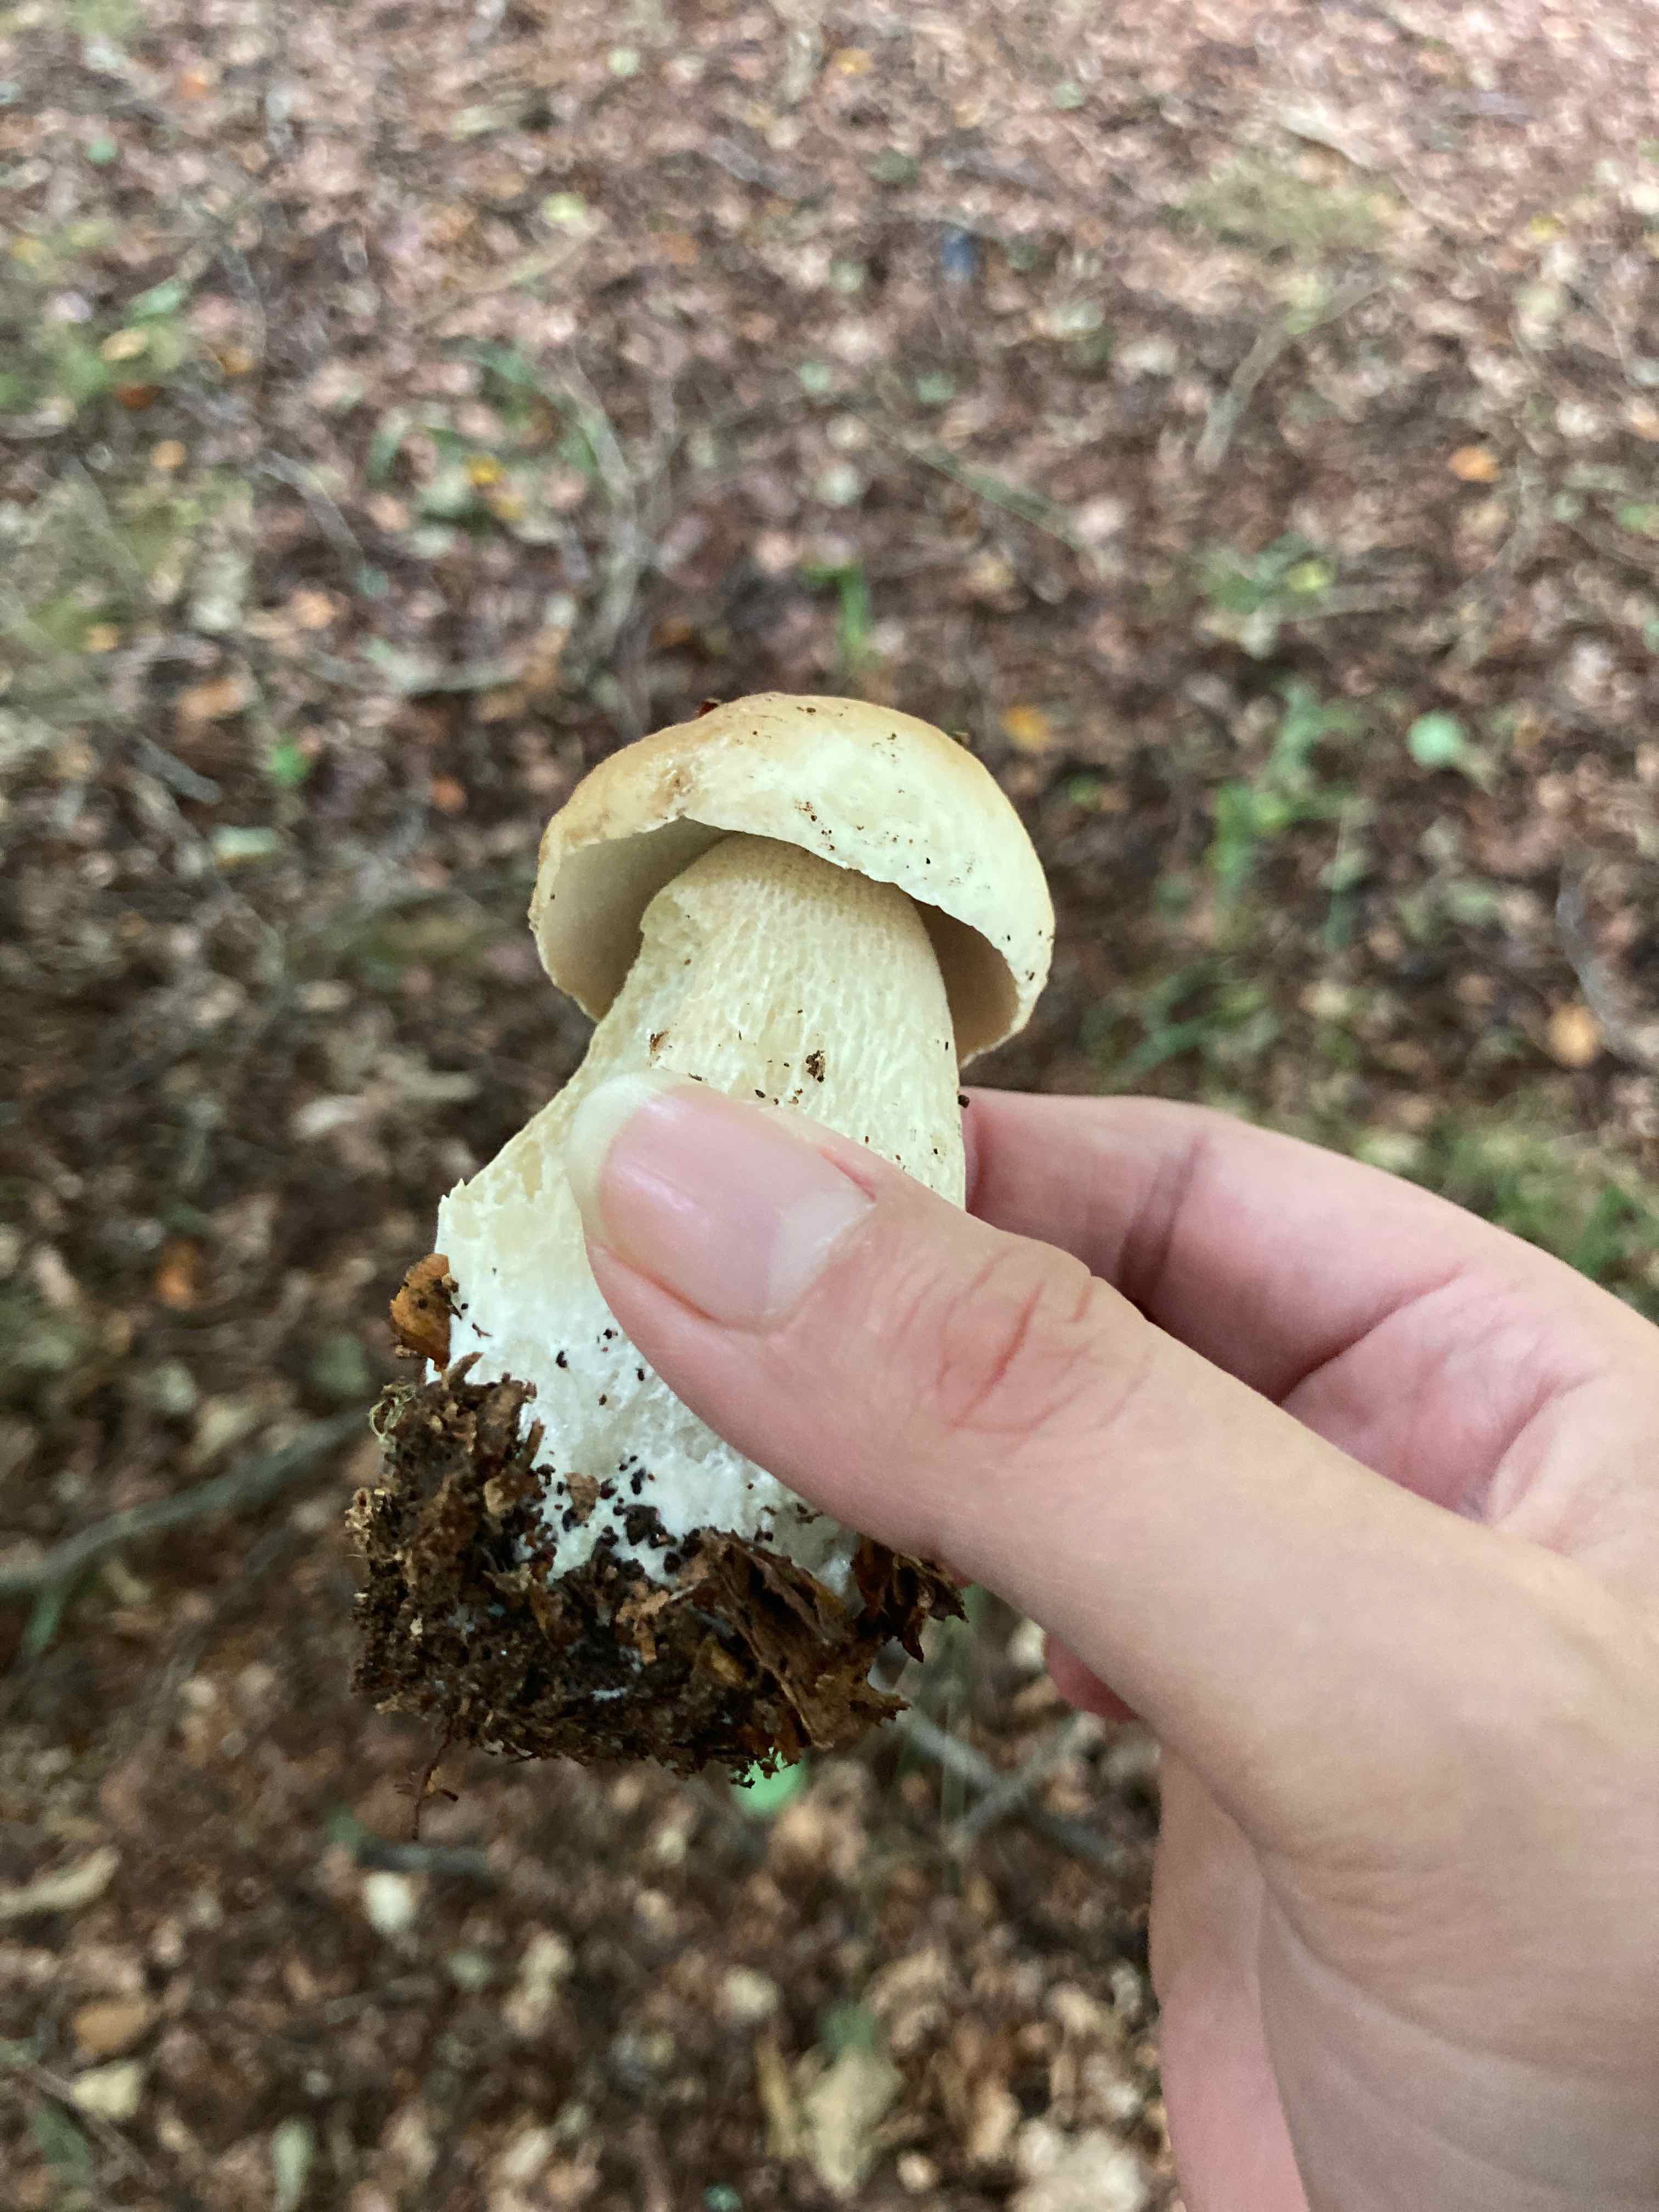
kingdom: Fungi
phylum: Basidiomycota
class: Agaricomycetes
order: Boletales
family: Boletaceae
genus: Boletus
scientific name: Boletus edulis
